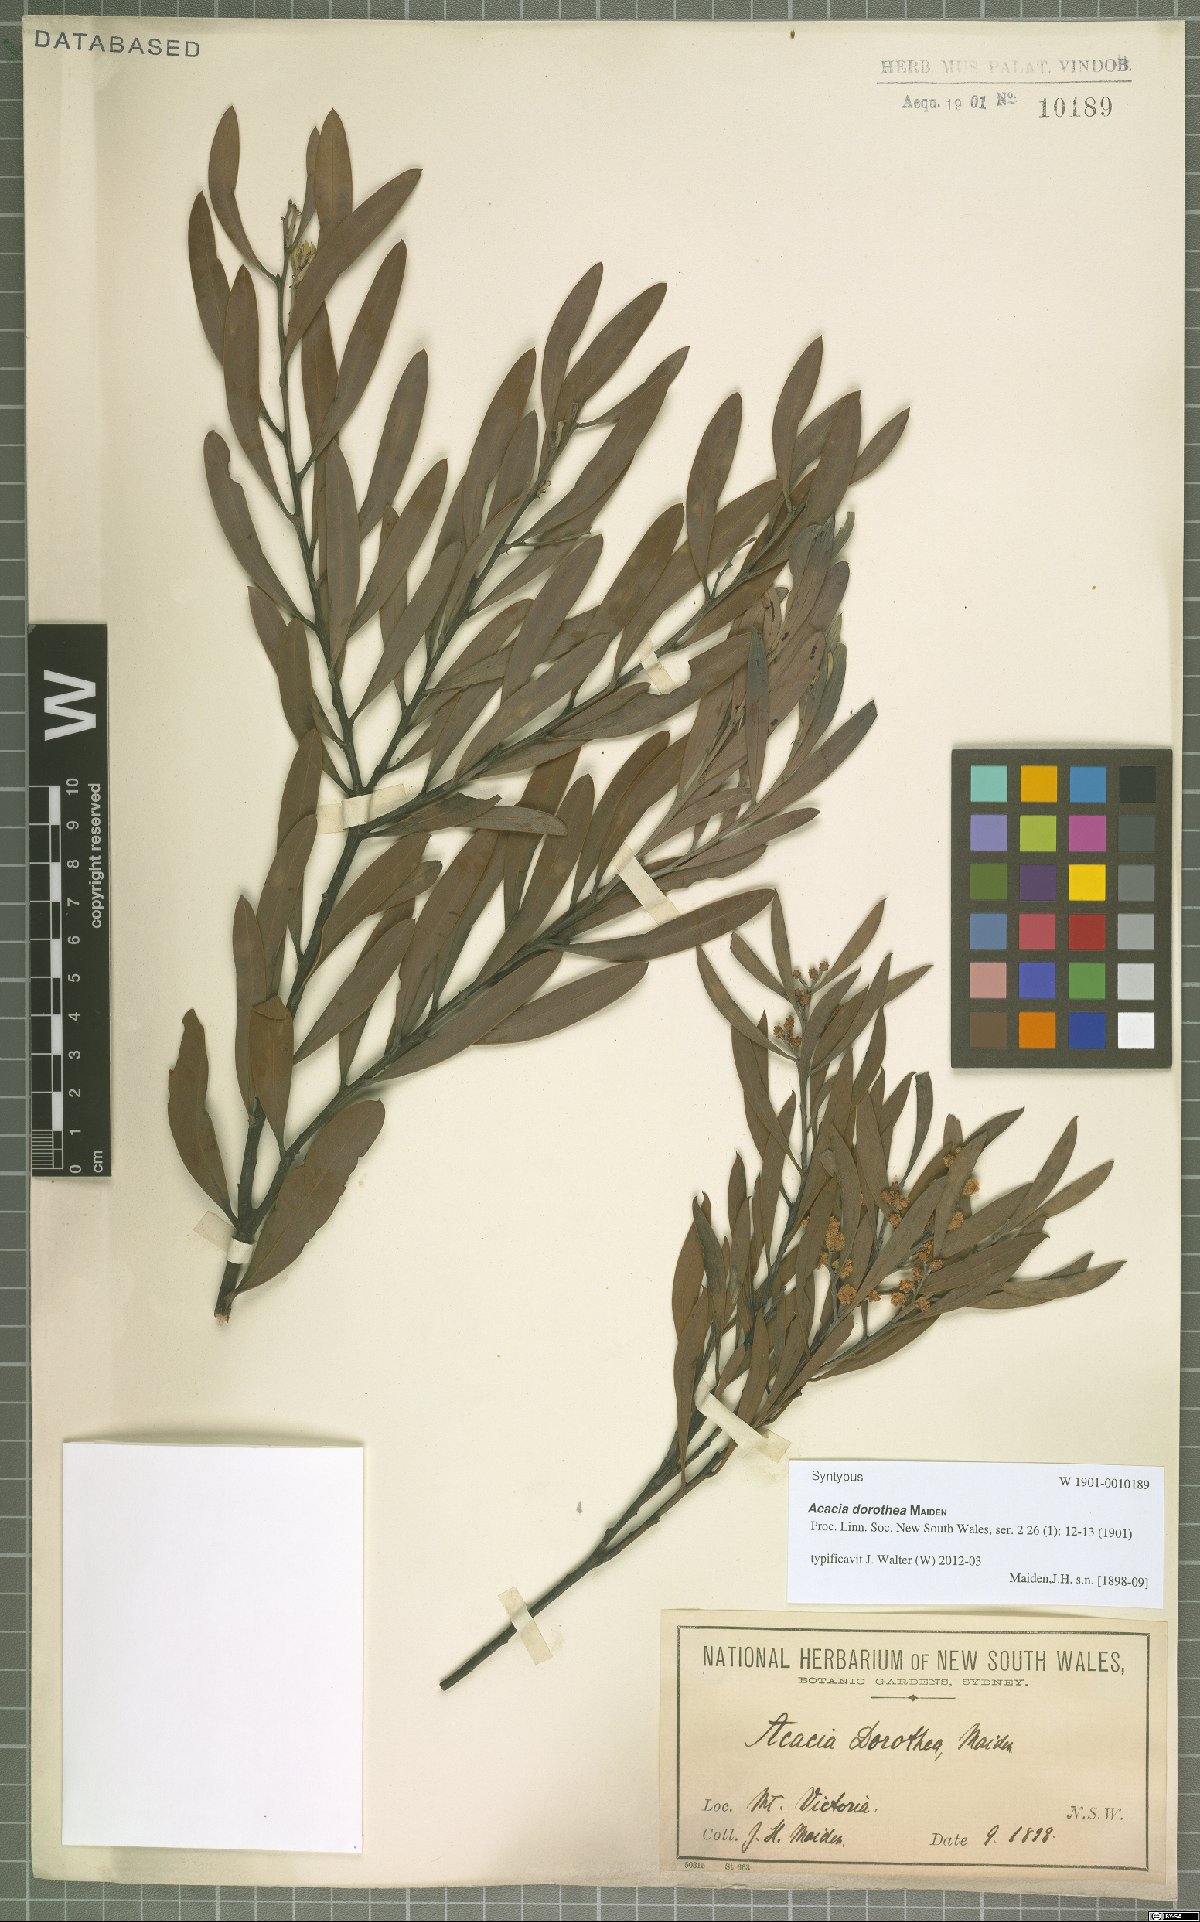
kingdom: Plantae
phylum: Tracheophyta
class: Magnoliopsida
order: Fabales
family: Fabaceae
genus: Acacia
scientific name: Acacia dorothea
